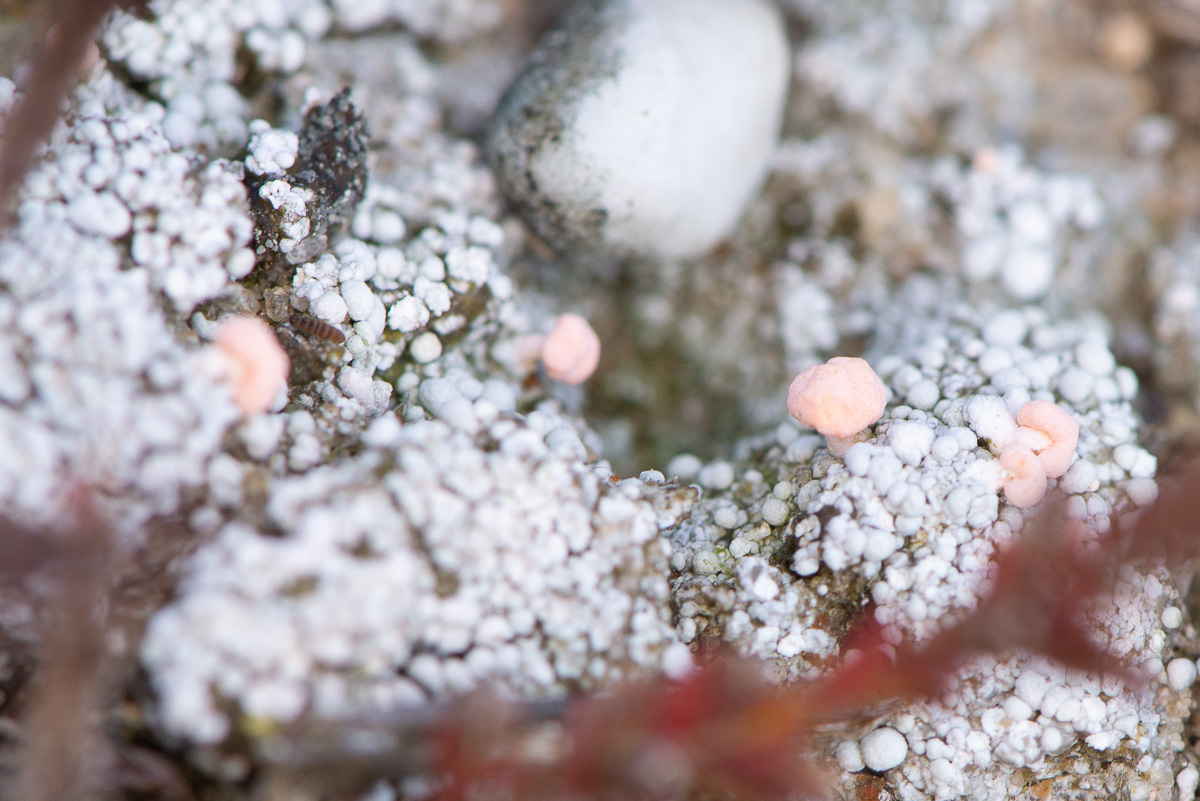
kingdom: Fungi
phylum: Ascomycota
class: Lecanoromycetes
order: Pertusariales
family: Icmadophilaceae
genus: Dibaeis
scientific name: Dibaeis baeomyces
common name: rosenrød stilav
